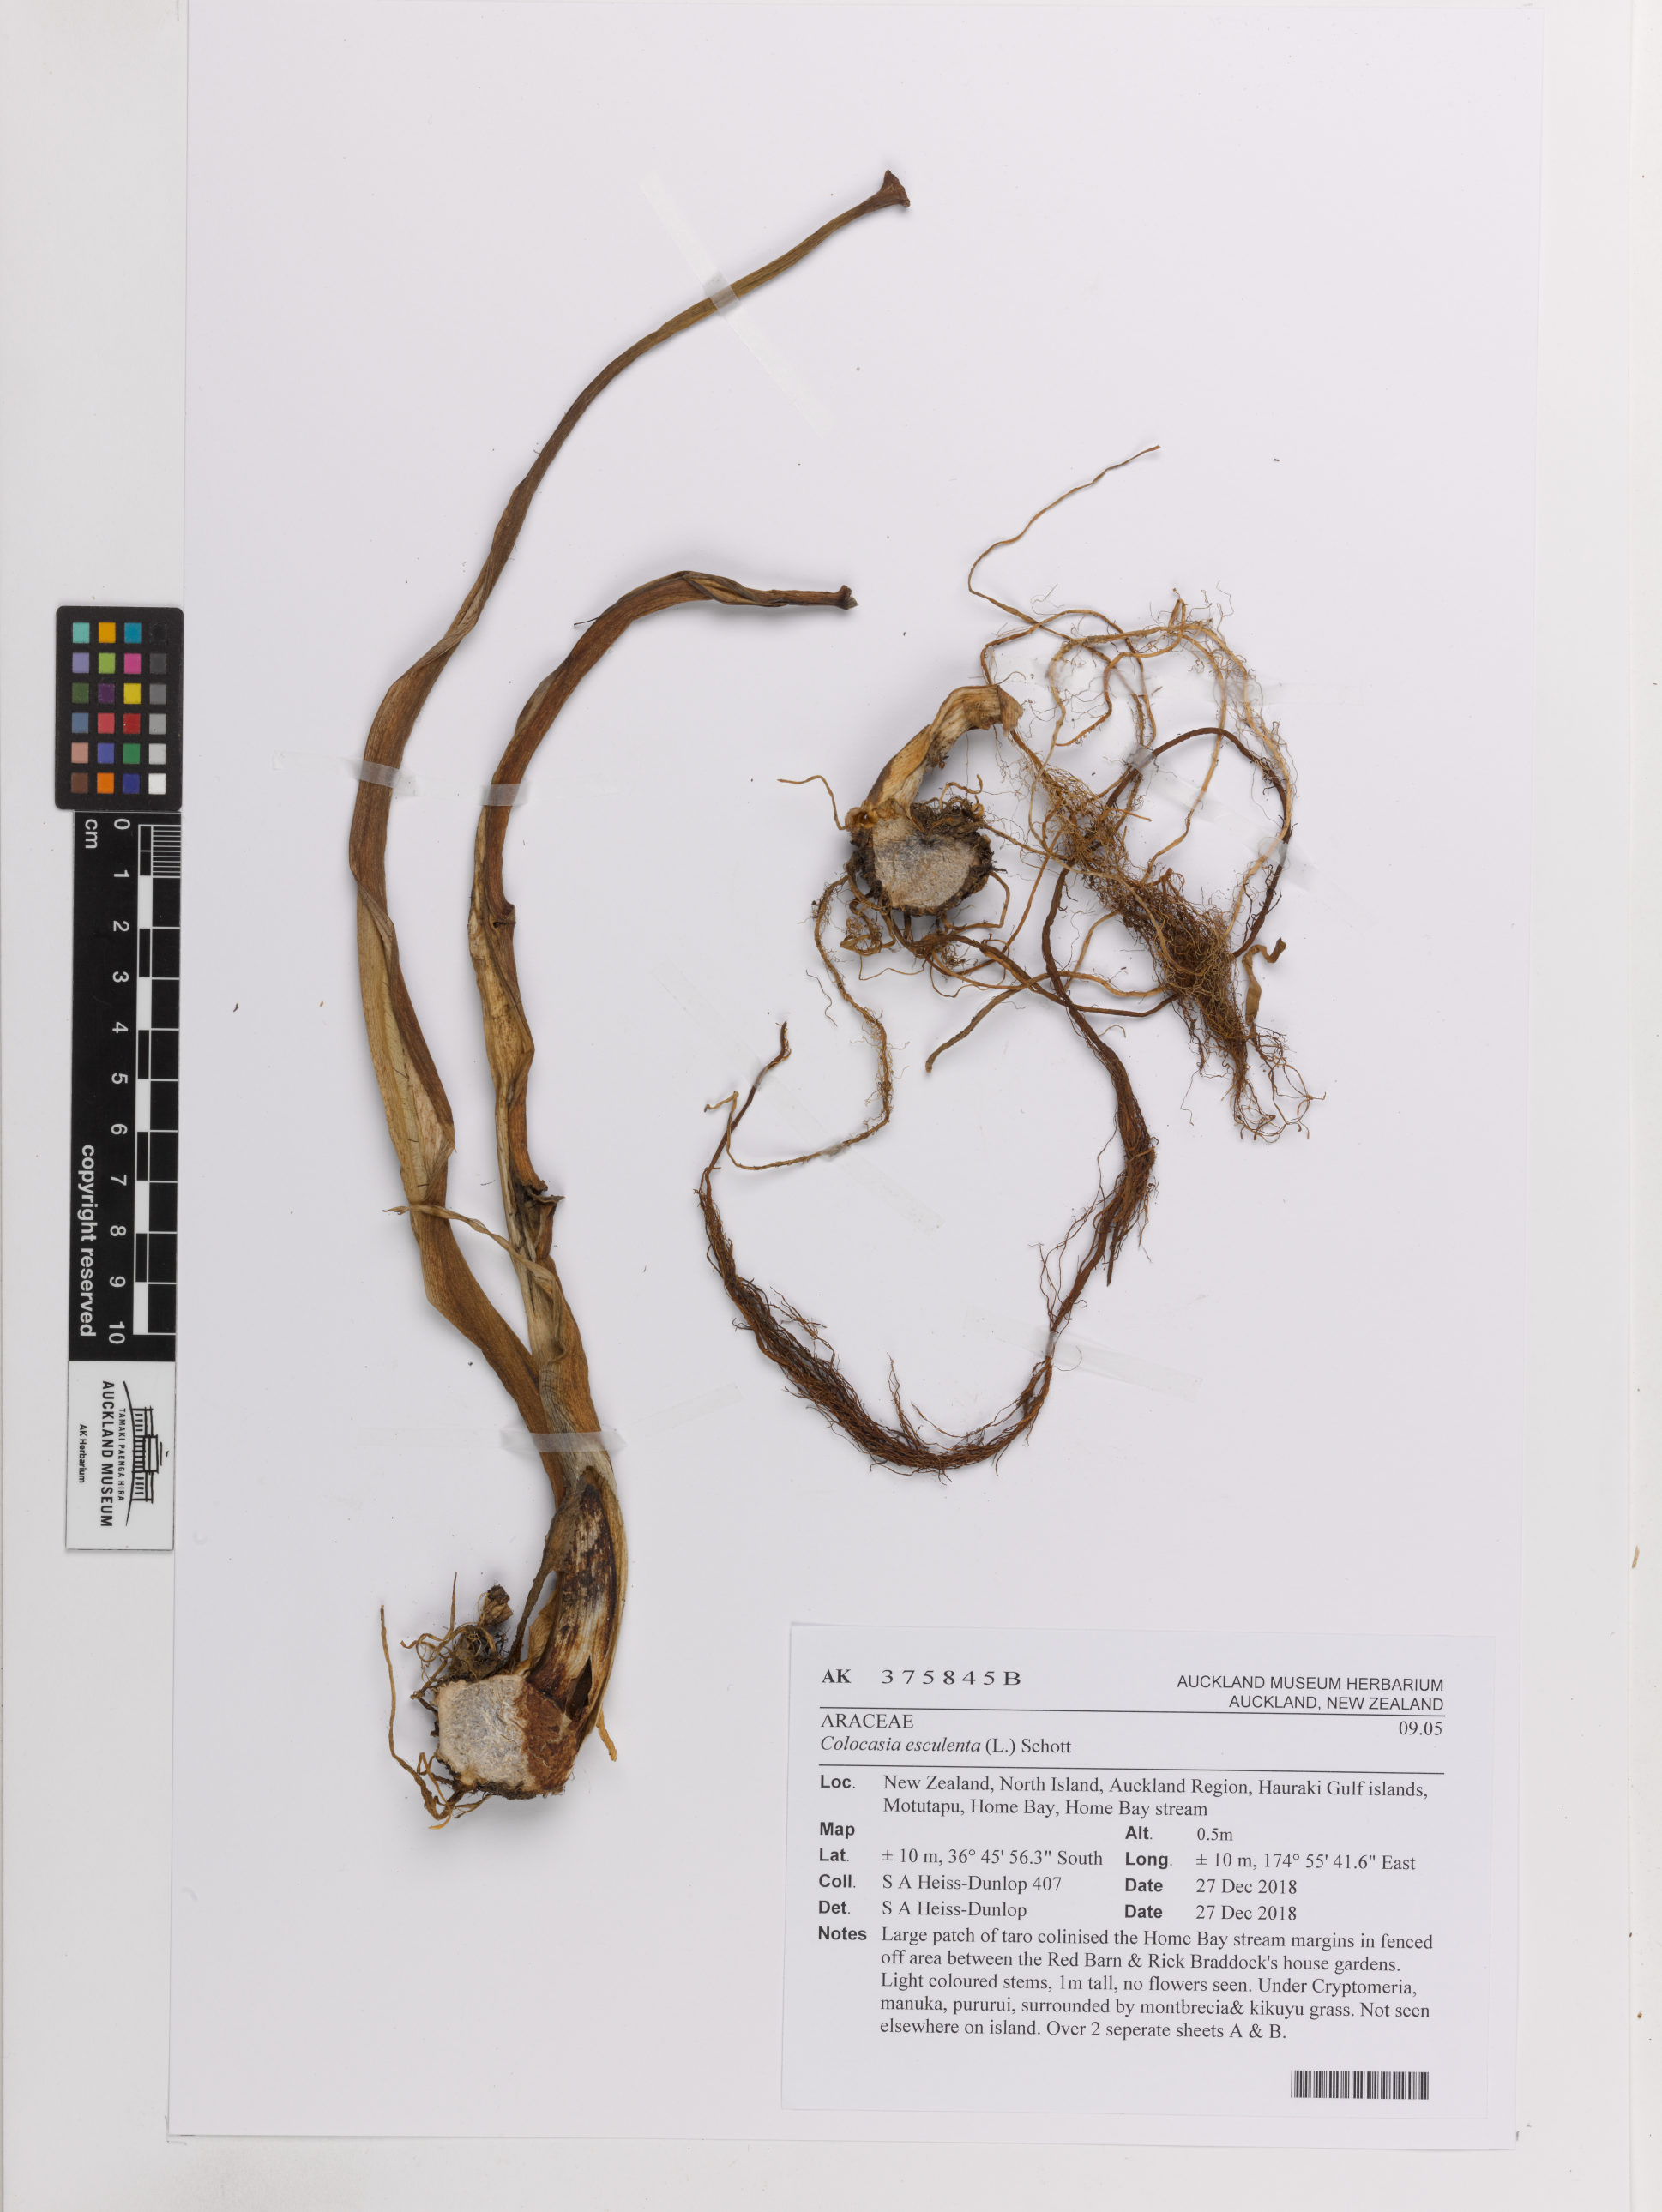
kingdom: Plantae
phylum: Tracheophyta
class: Liliopsida
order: Alismatales
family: Araceae
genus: Colocasia
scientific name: Colocasia esculenta
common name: Taro
